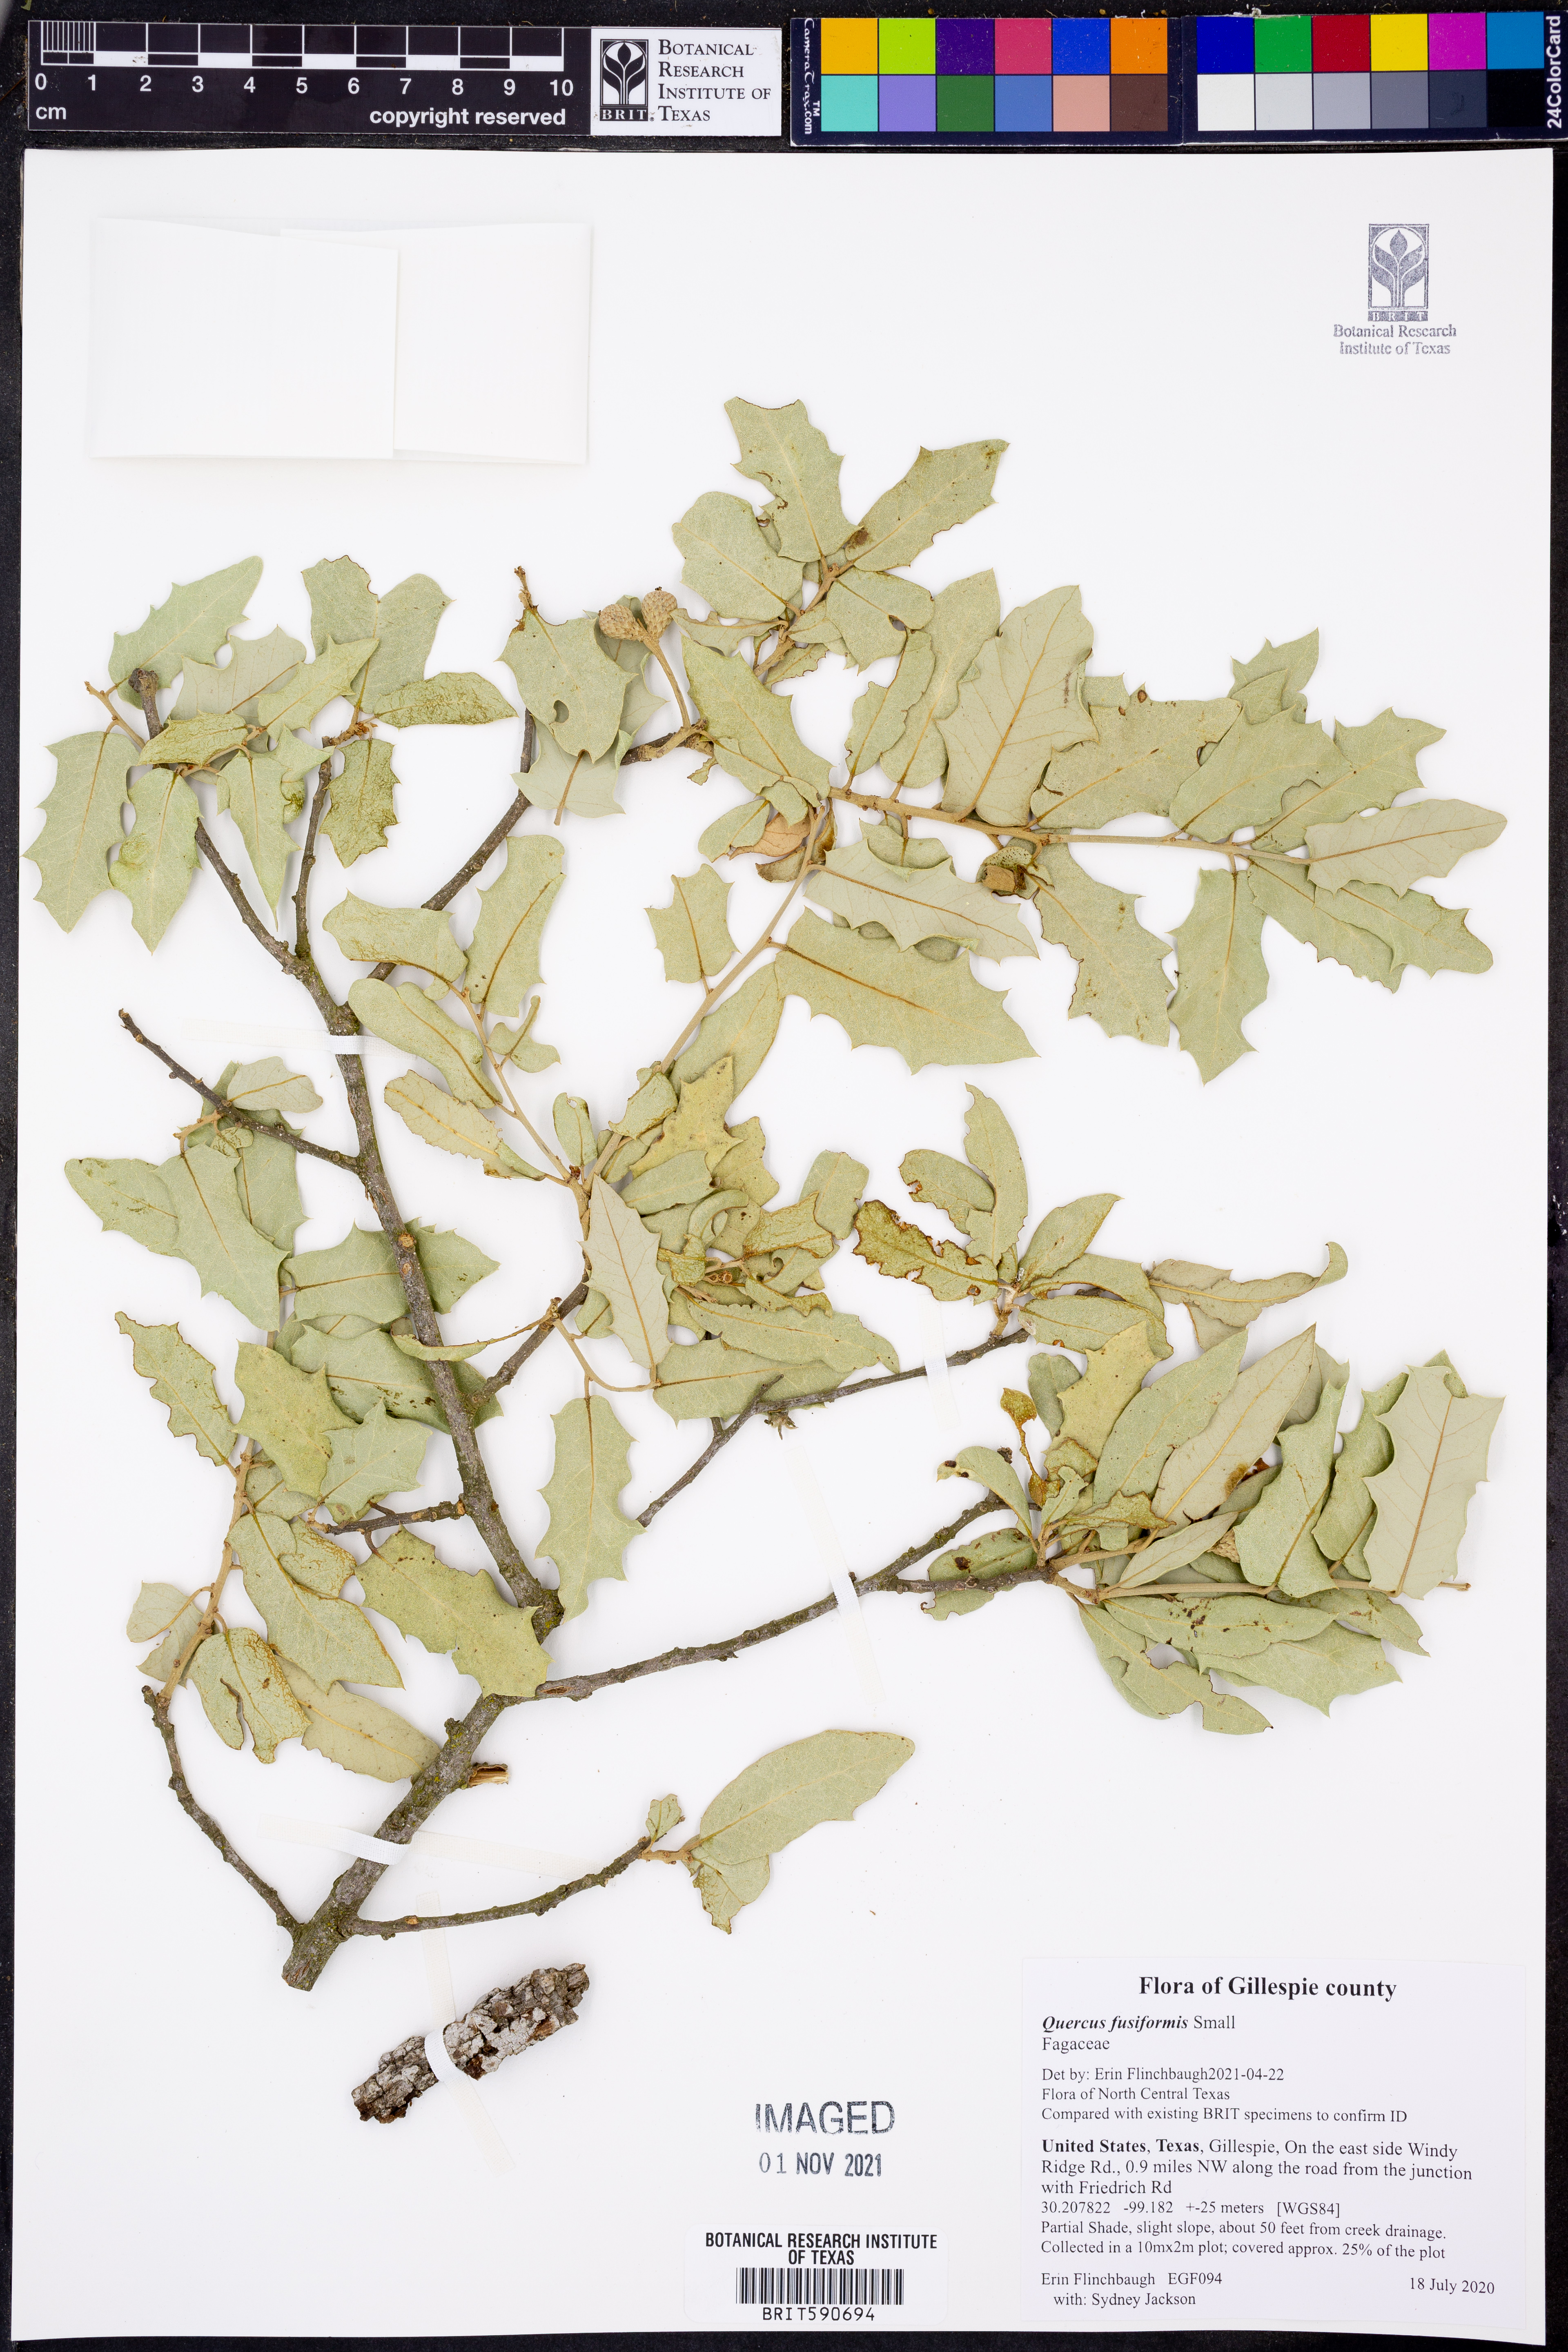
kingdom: Plantae
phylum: Tracheophyta
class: Magnoliopsida
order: Fagales
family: Fagaceae
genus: Quercus
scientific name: Quercus fusiformis
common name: Texas live oak
